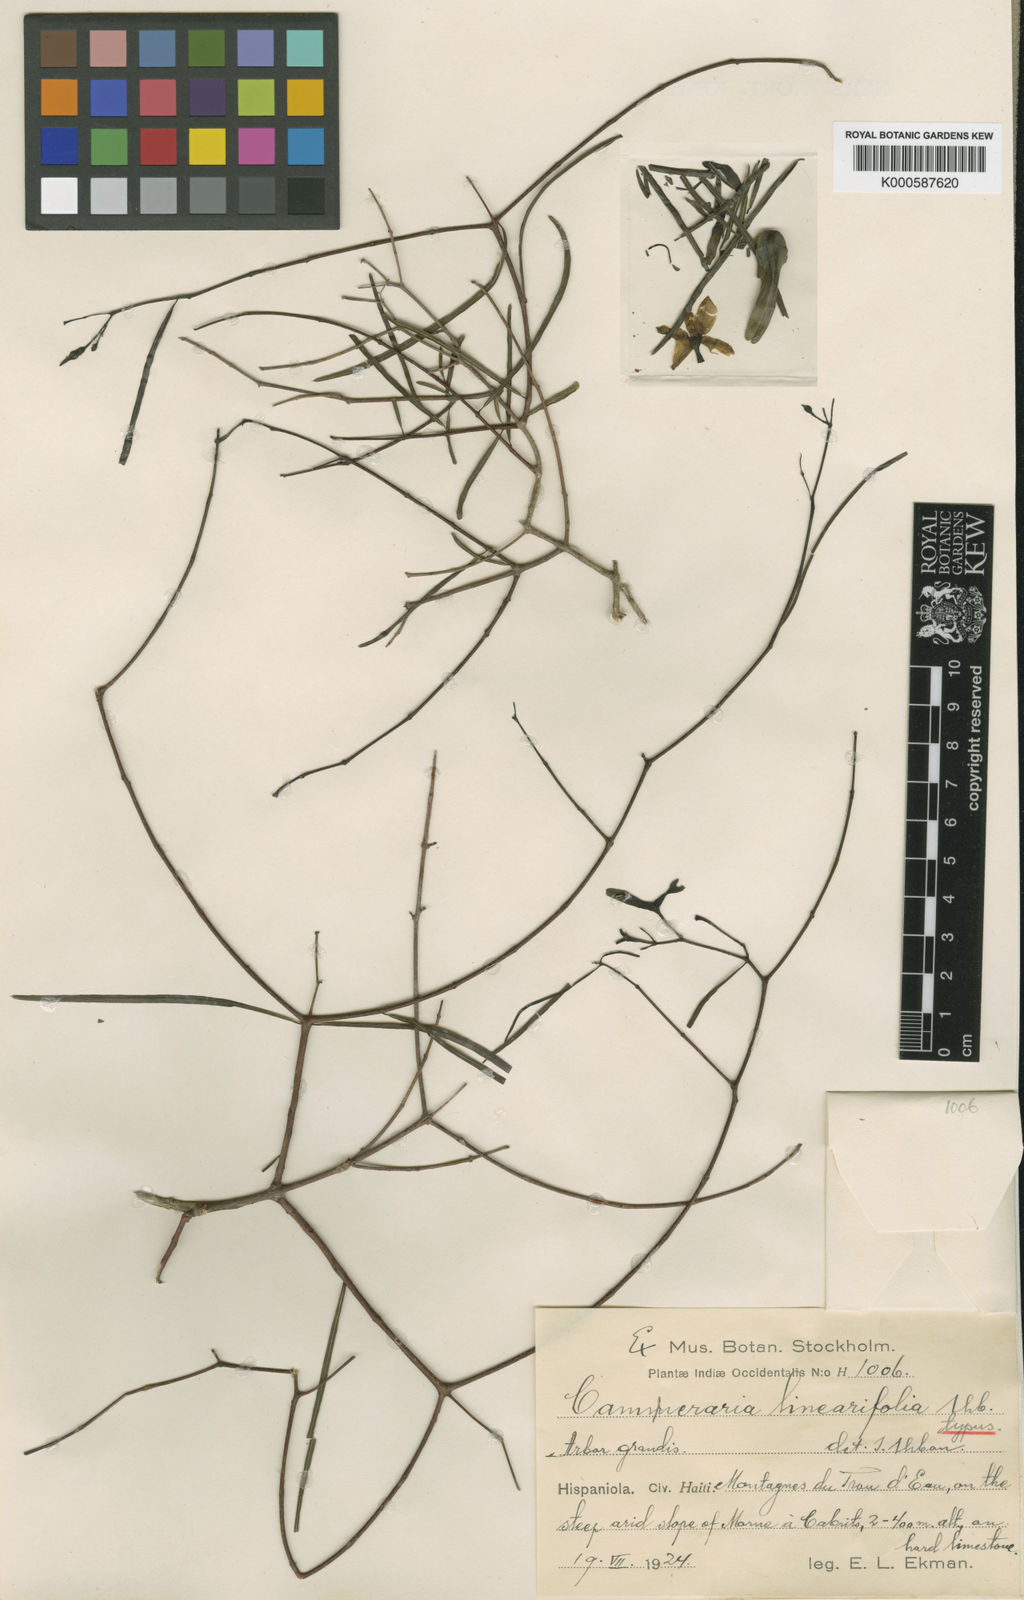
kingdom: Plantae
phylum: Tracheophyta
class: Magnoliopsida
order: Gentianales
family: Apocynaceae
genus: Cameraria
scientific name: Cameraria linearifolia
